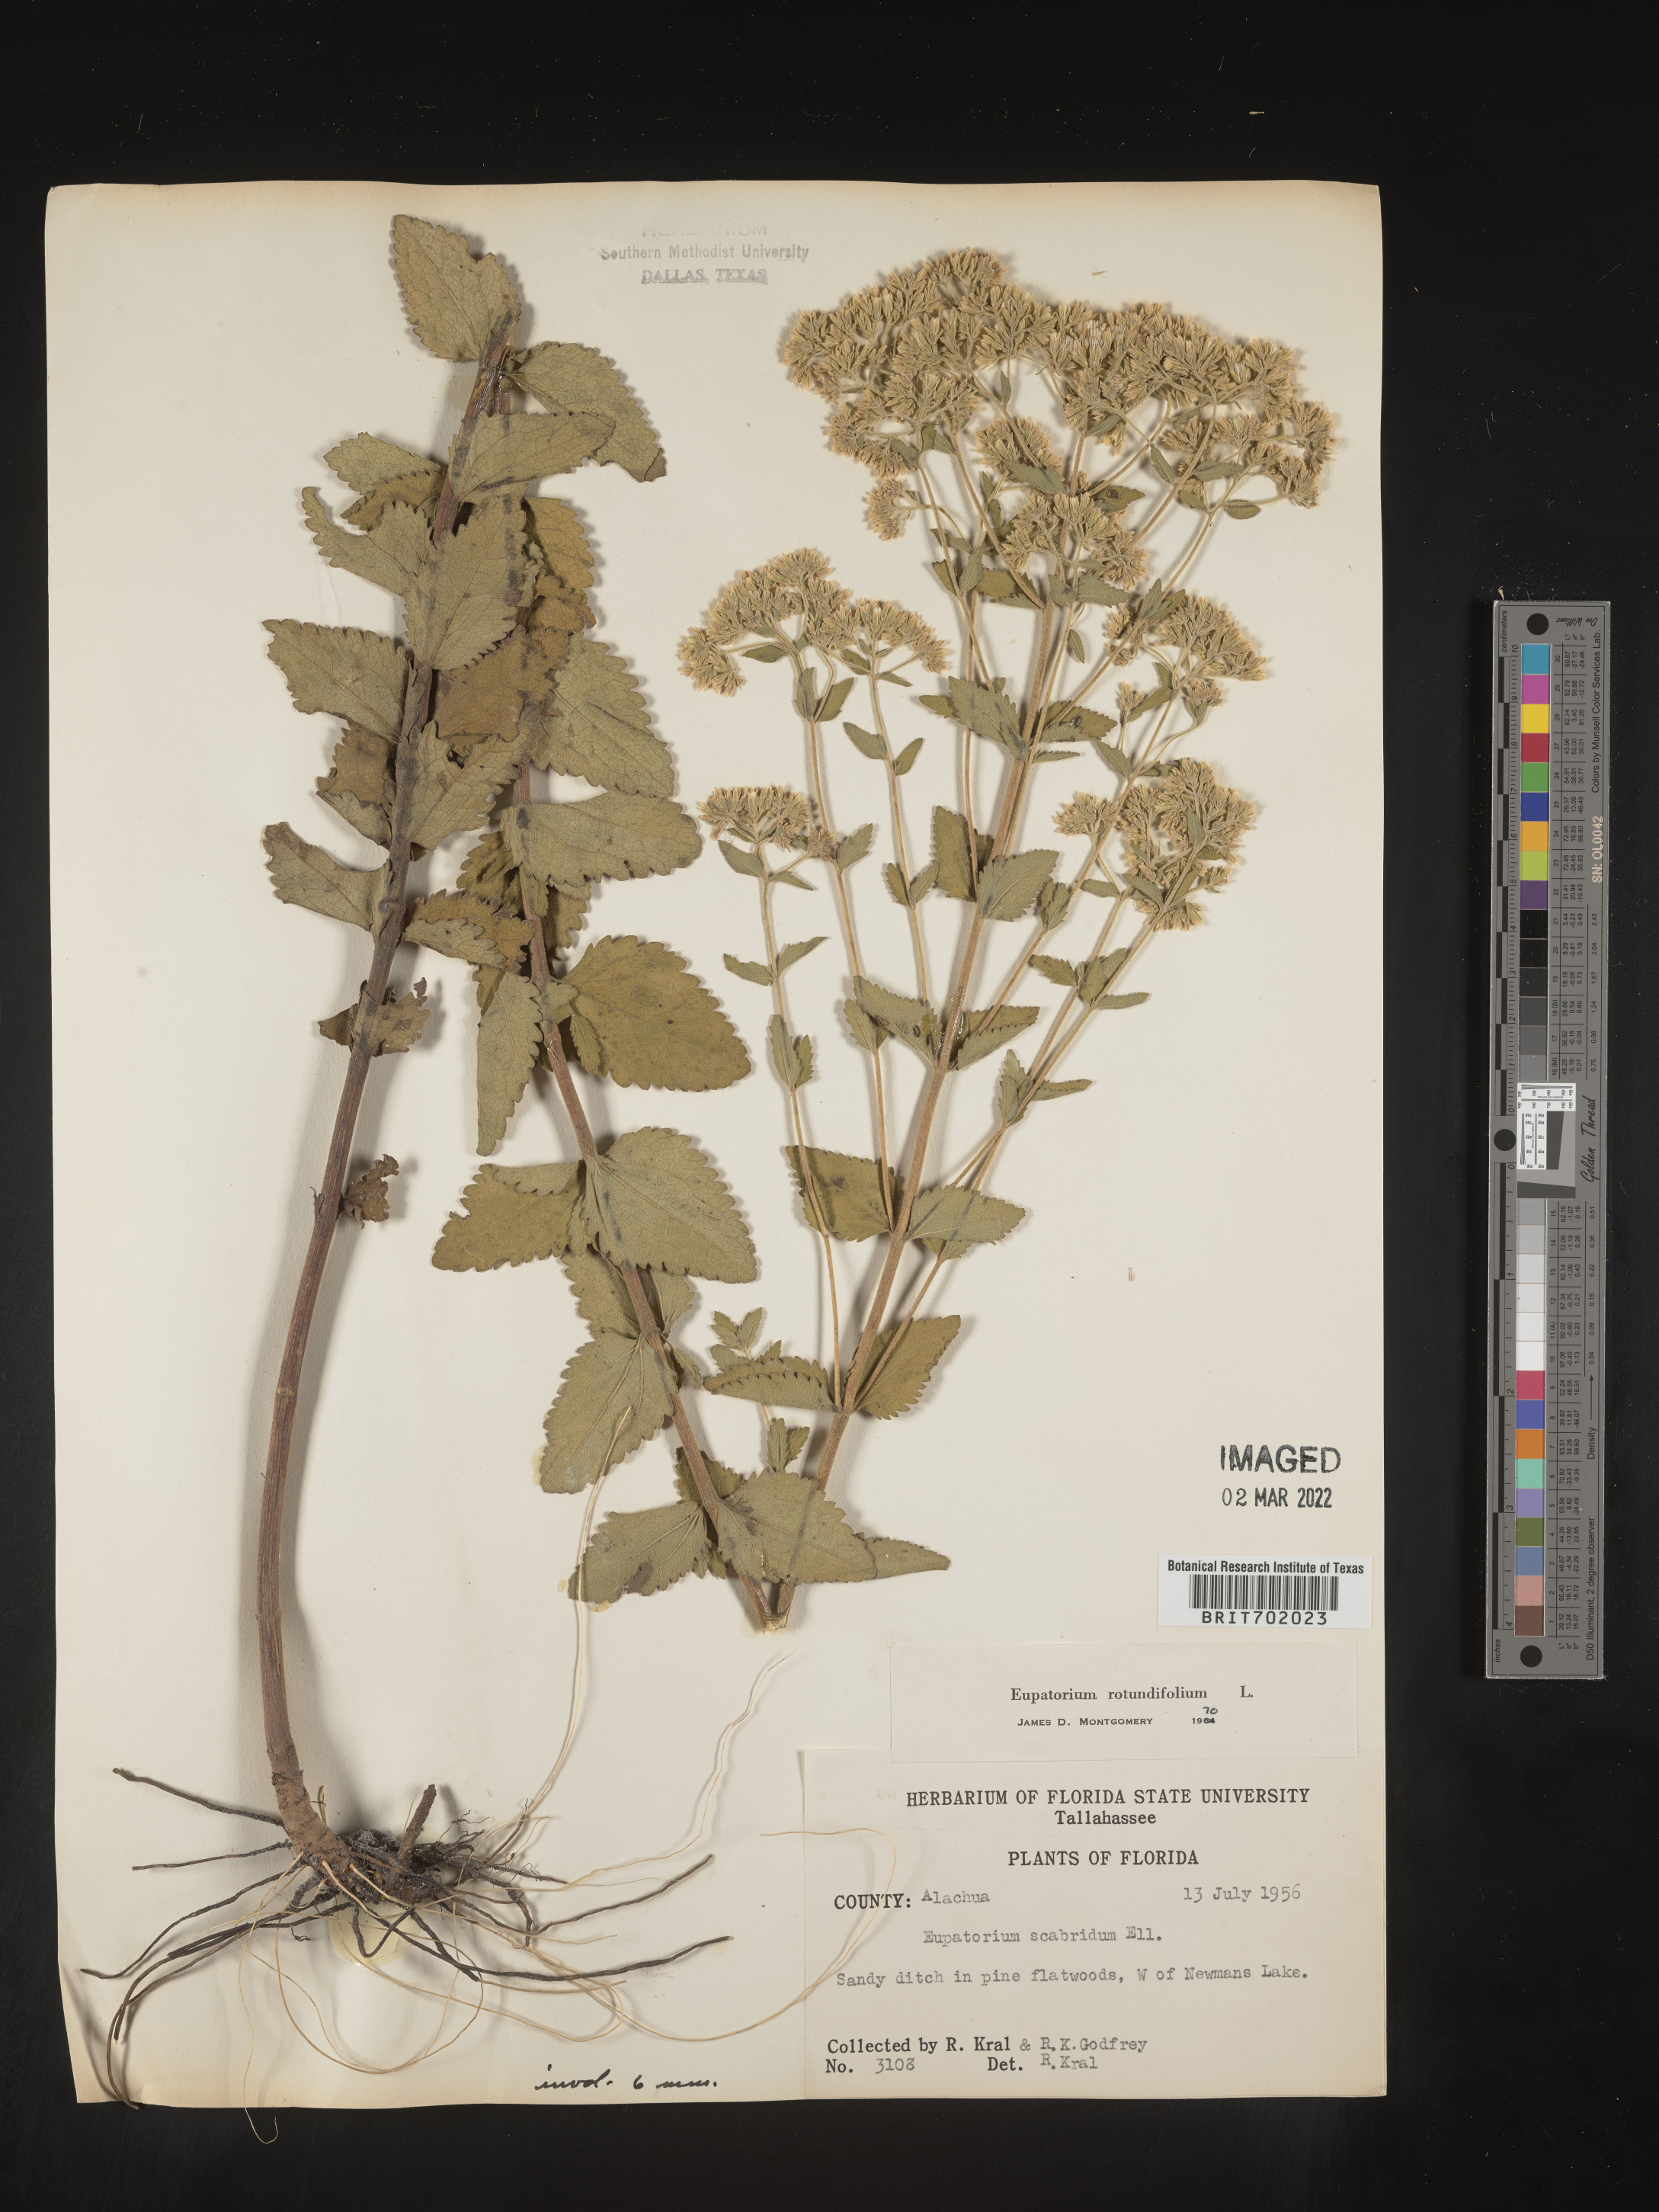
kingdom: Plantae
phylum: Tracheophyta
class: Magnoliopsida
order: Asterales
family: Asteraceae
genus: Eupatorium
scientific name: Eupatorium rotundifolium
